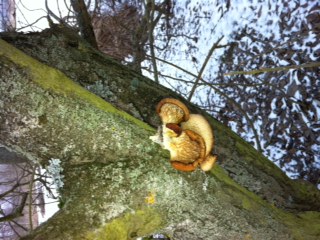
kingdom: Fungi
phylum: Basidiomycota
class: Agaricomycetes
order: Agaricales
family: Pleurotaceae
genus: Pleurotus
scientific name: Pleurotus ostreatus
